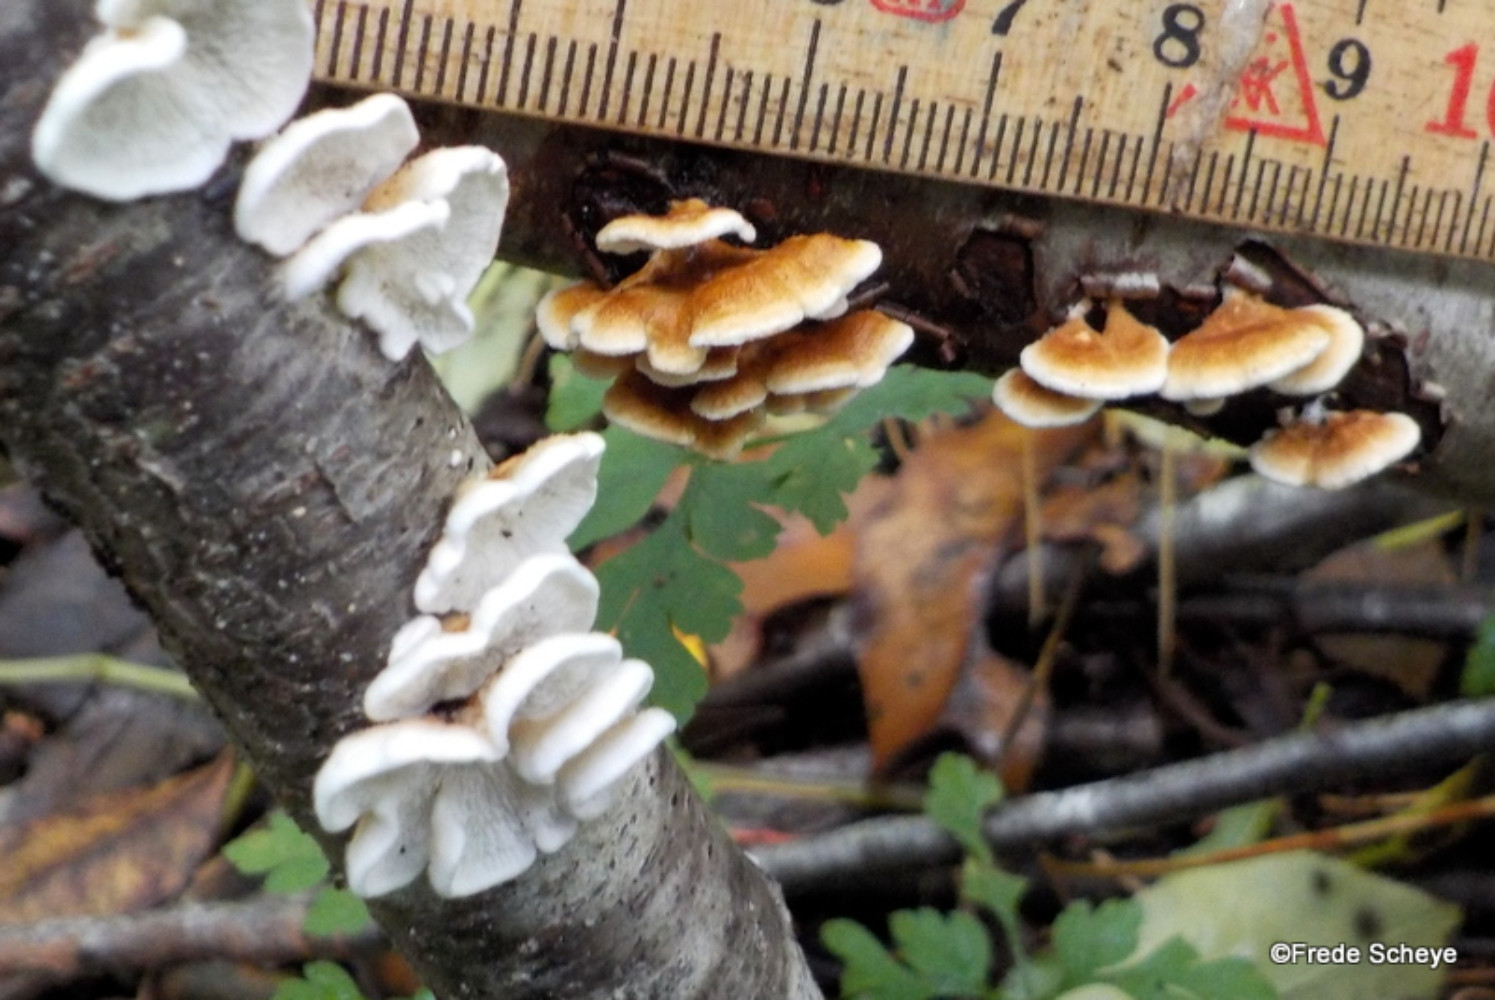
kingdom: Fungi
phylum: Basidiomycota
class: Agaricomycetes
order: Amylocorticiales
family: Amylocorticiaceae
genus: Plicaturopsis
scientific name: Plicaturopsis crispa
